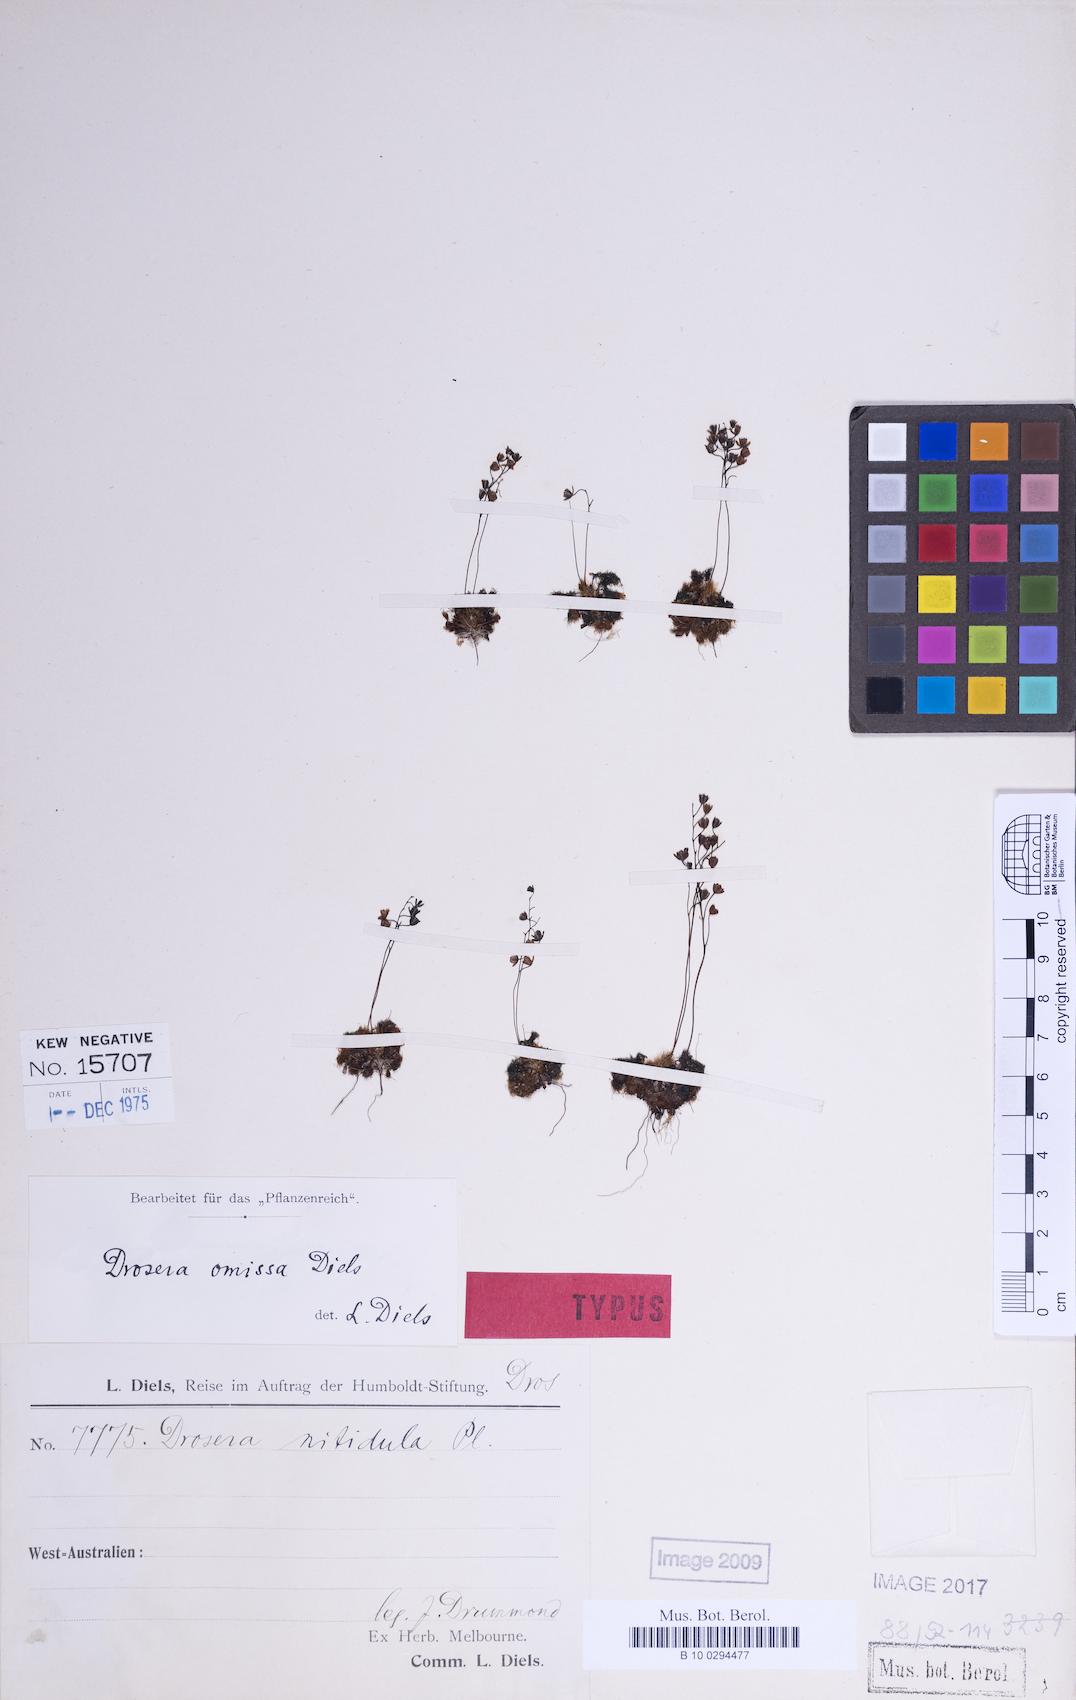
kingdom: Plantae
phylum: Tracheophyta
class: Magnoliopsida
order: Caryophyllales
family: Droseraceae
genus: Drosera
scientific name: Drosera nitidula
